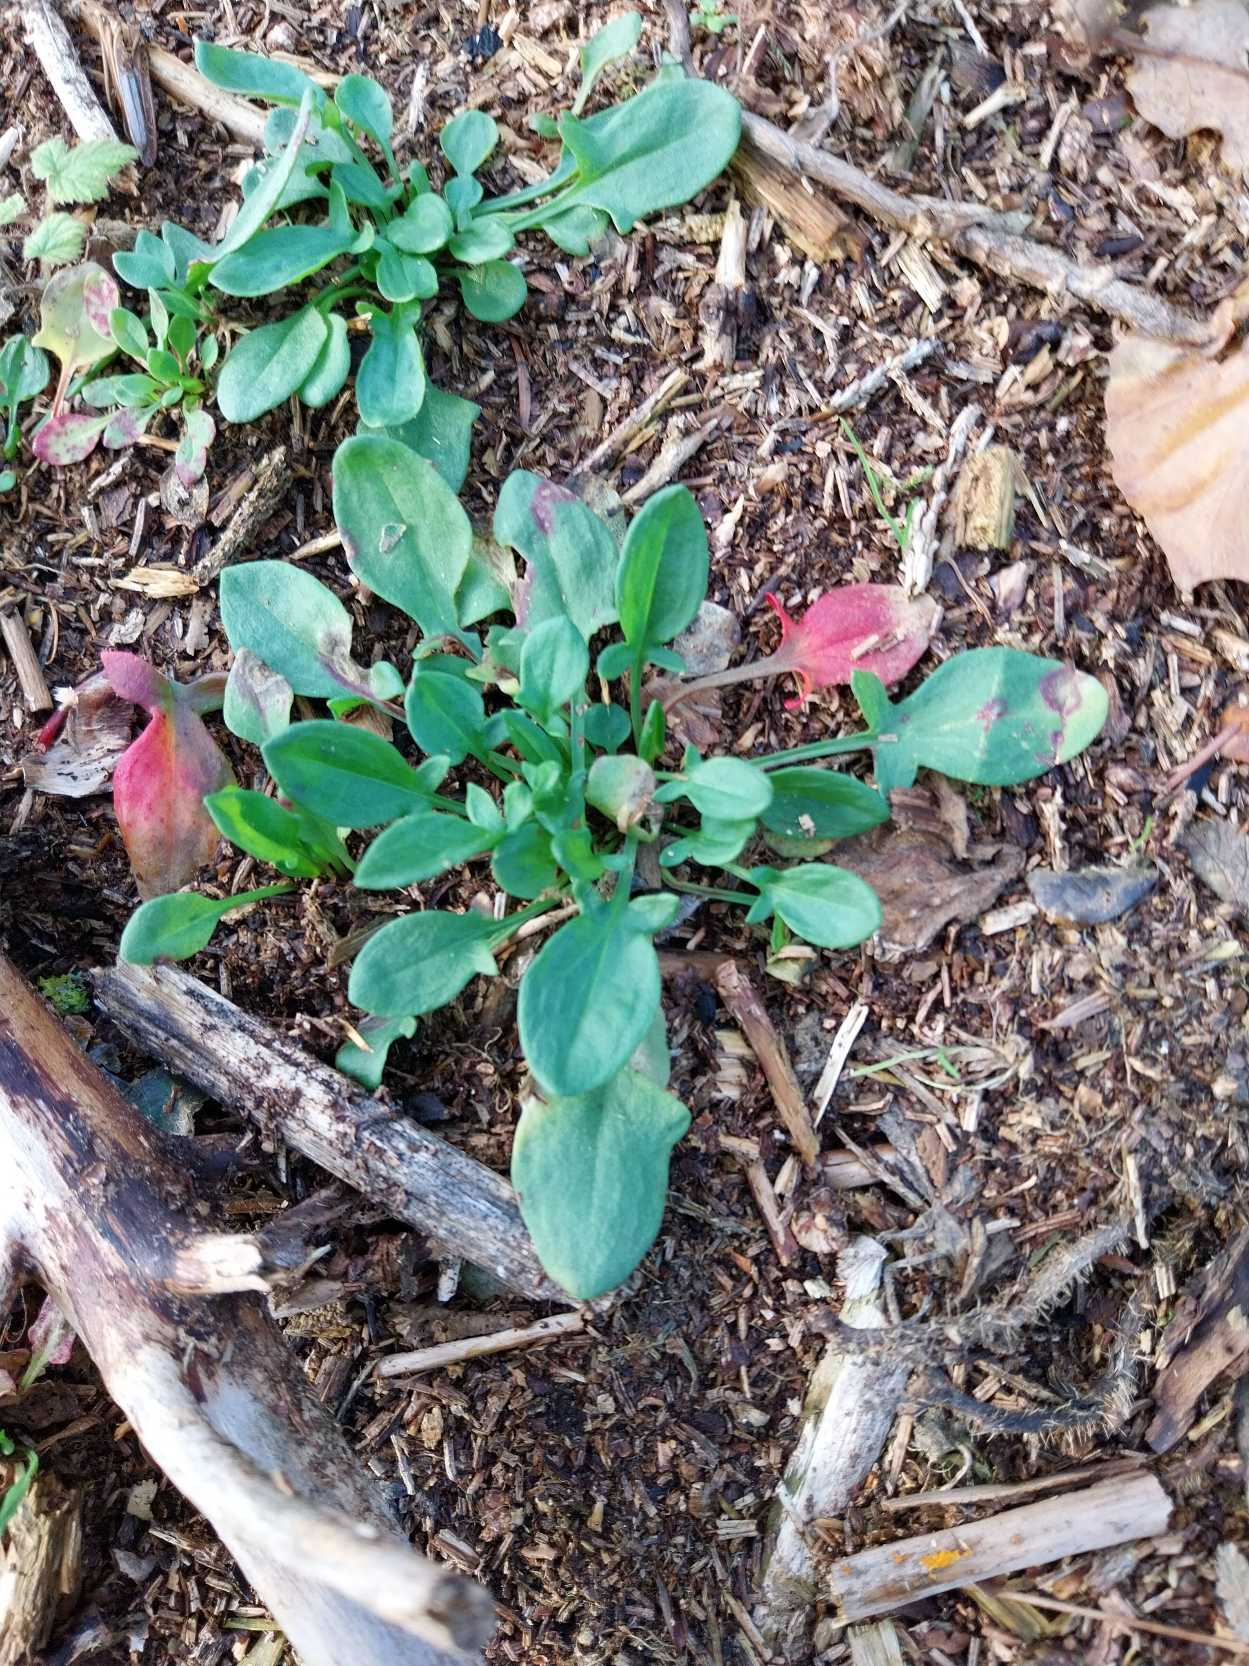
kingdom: Plantae
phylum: Tracheophyta
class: Magnoliopsida
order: Caryophyllales
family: Polygonaceae
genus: Rumex
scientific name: Rumex acetosella
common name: Rødknæ
